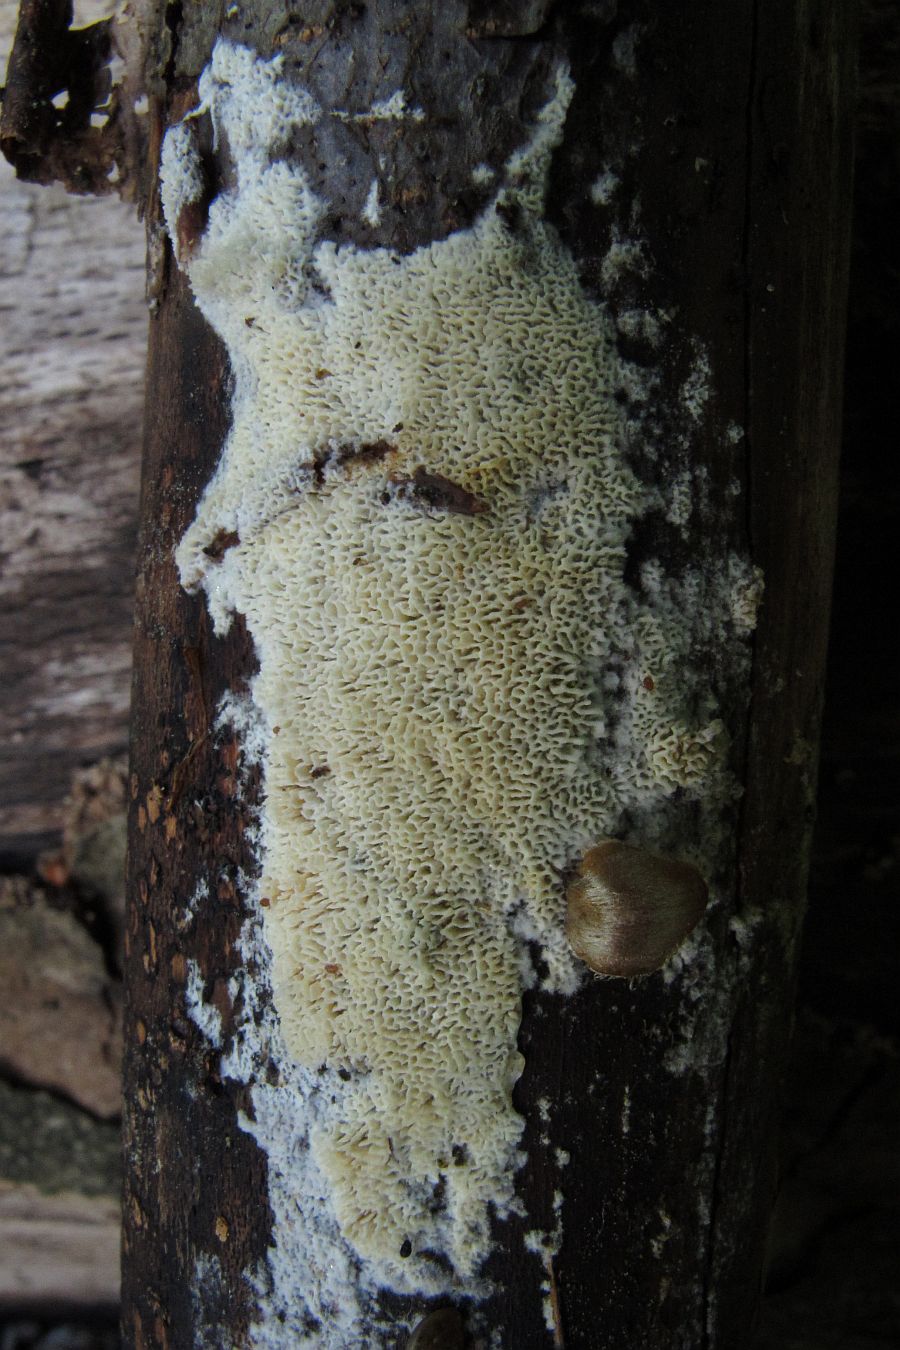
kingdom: Fungi
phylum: Basidiomycota
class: Agaricomycetes
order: Hymenochaetales
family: Schizoporaceae
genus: Xylodon
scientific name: Xylodon subtropicus
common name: labyrint-tandsvamp
